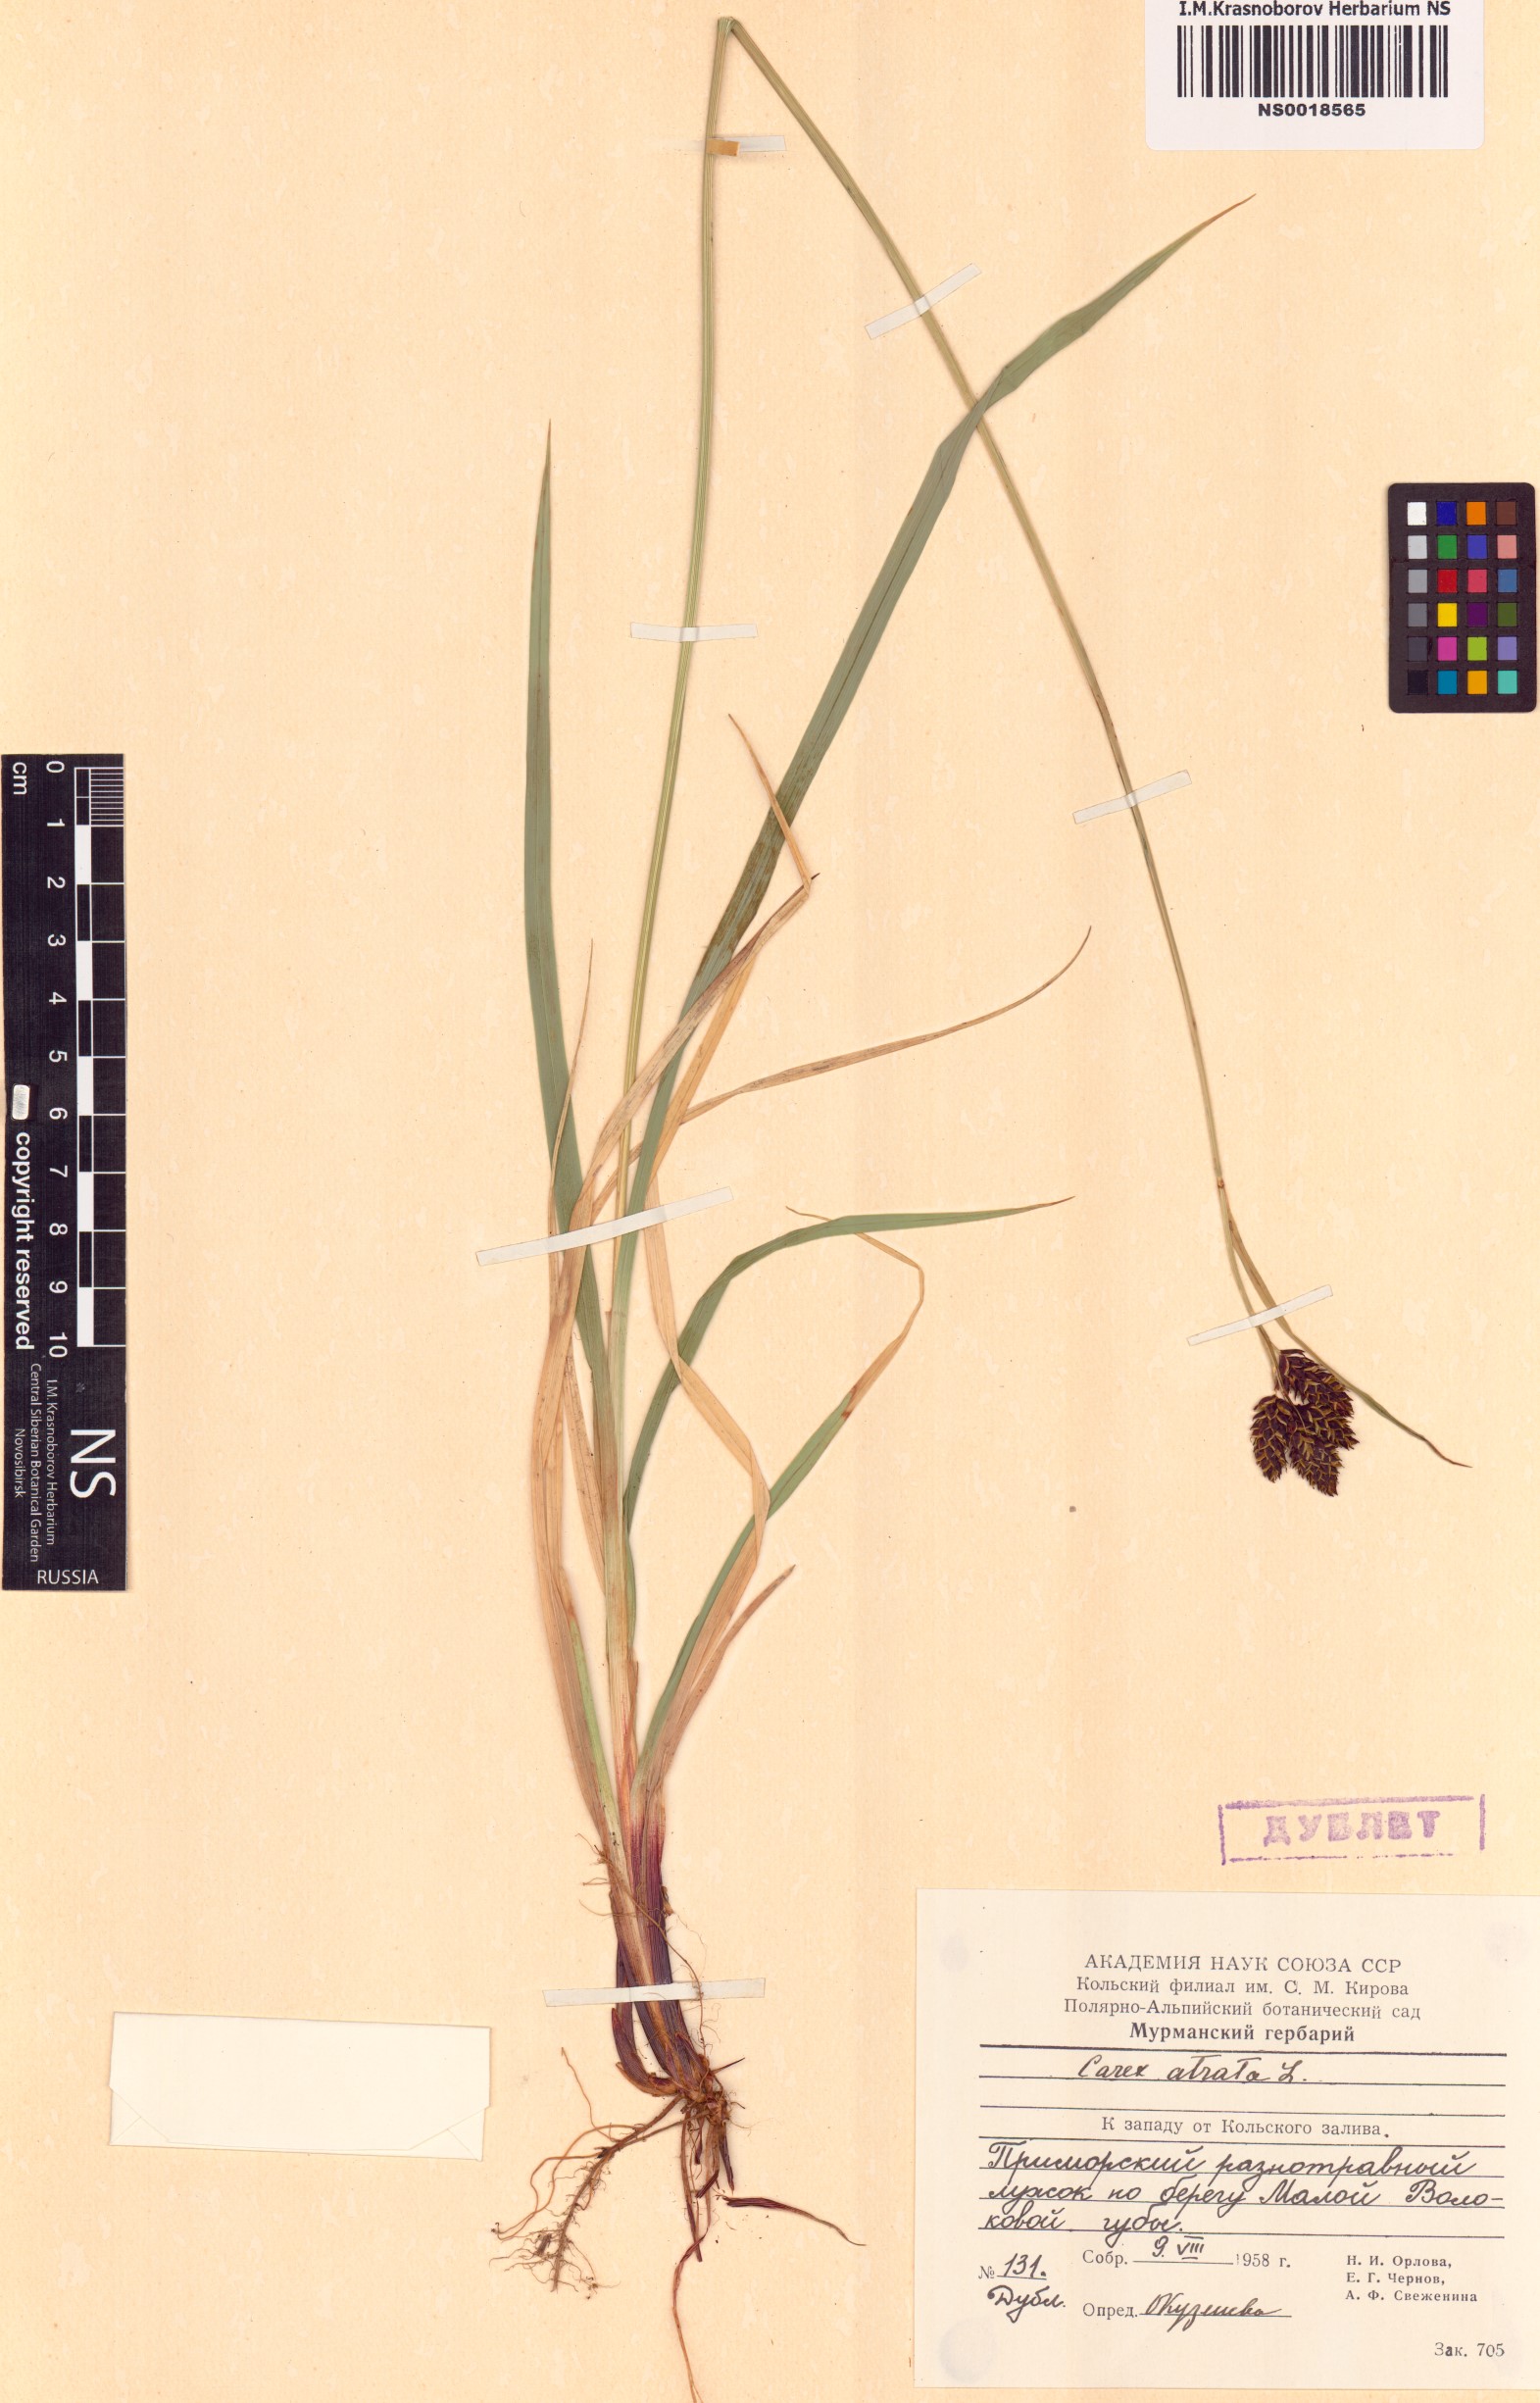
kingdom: Plantae
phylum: Tracheophyta
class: Liliopsida
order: Poales
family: Cyperaceae
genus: Carex
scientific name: Carex atrata
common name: Black alpine sedge
